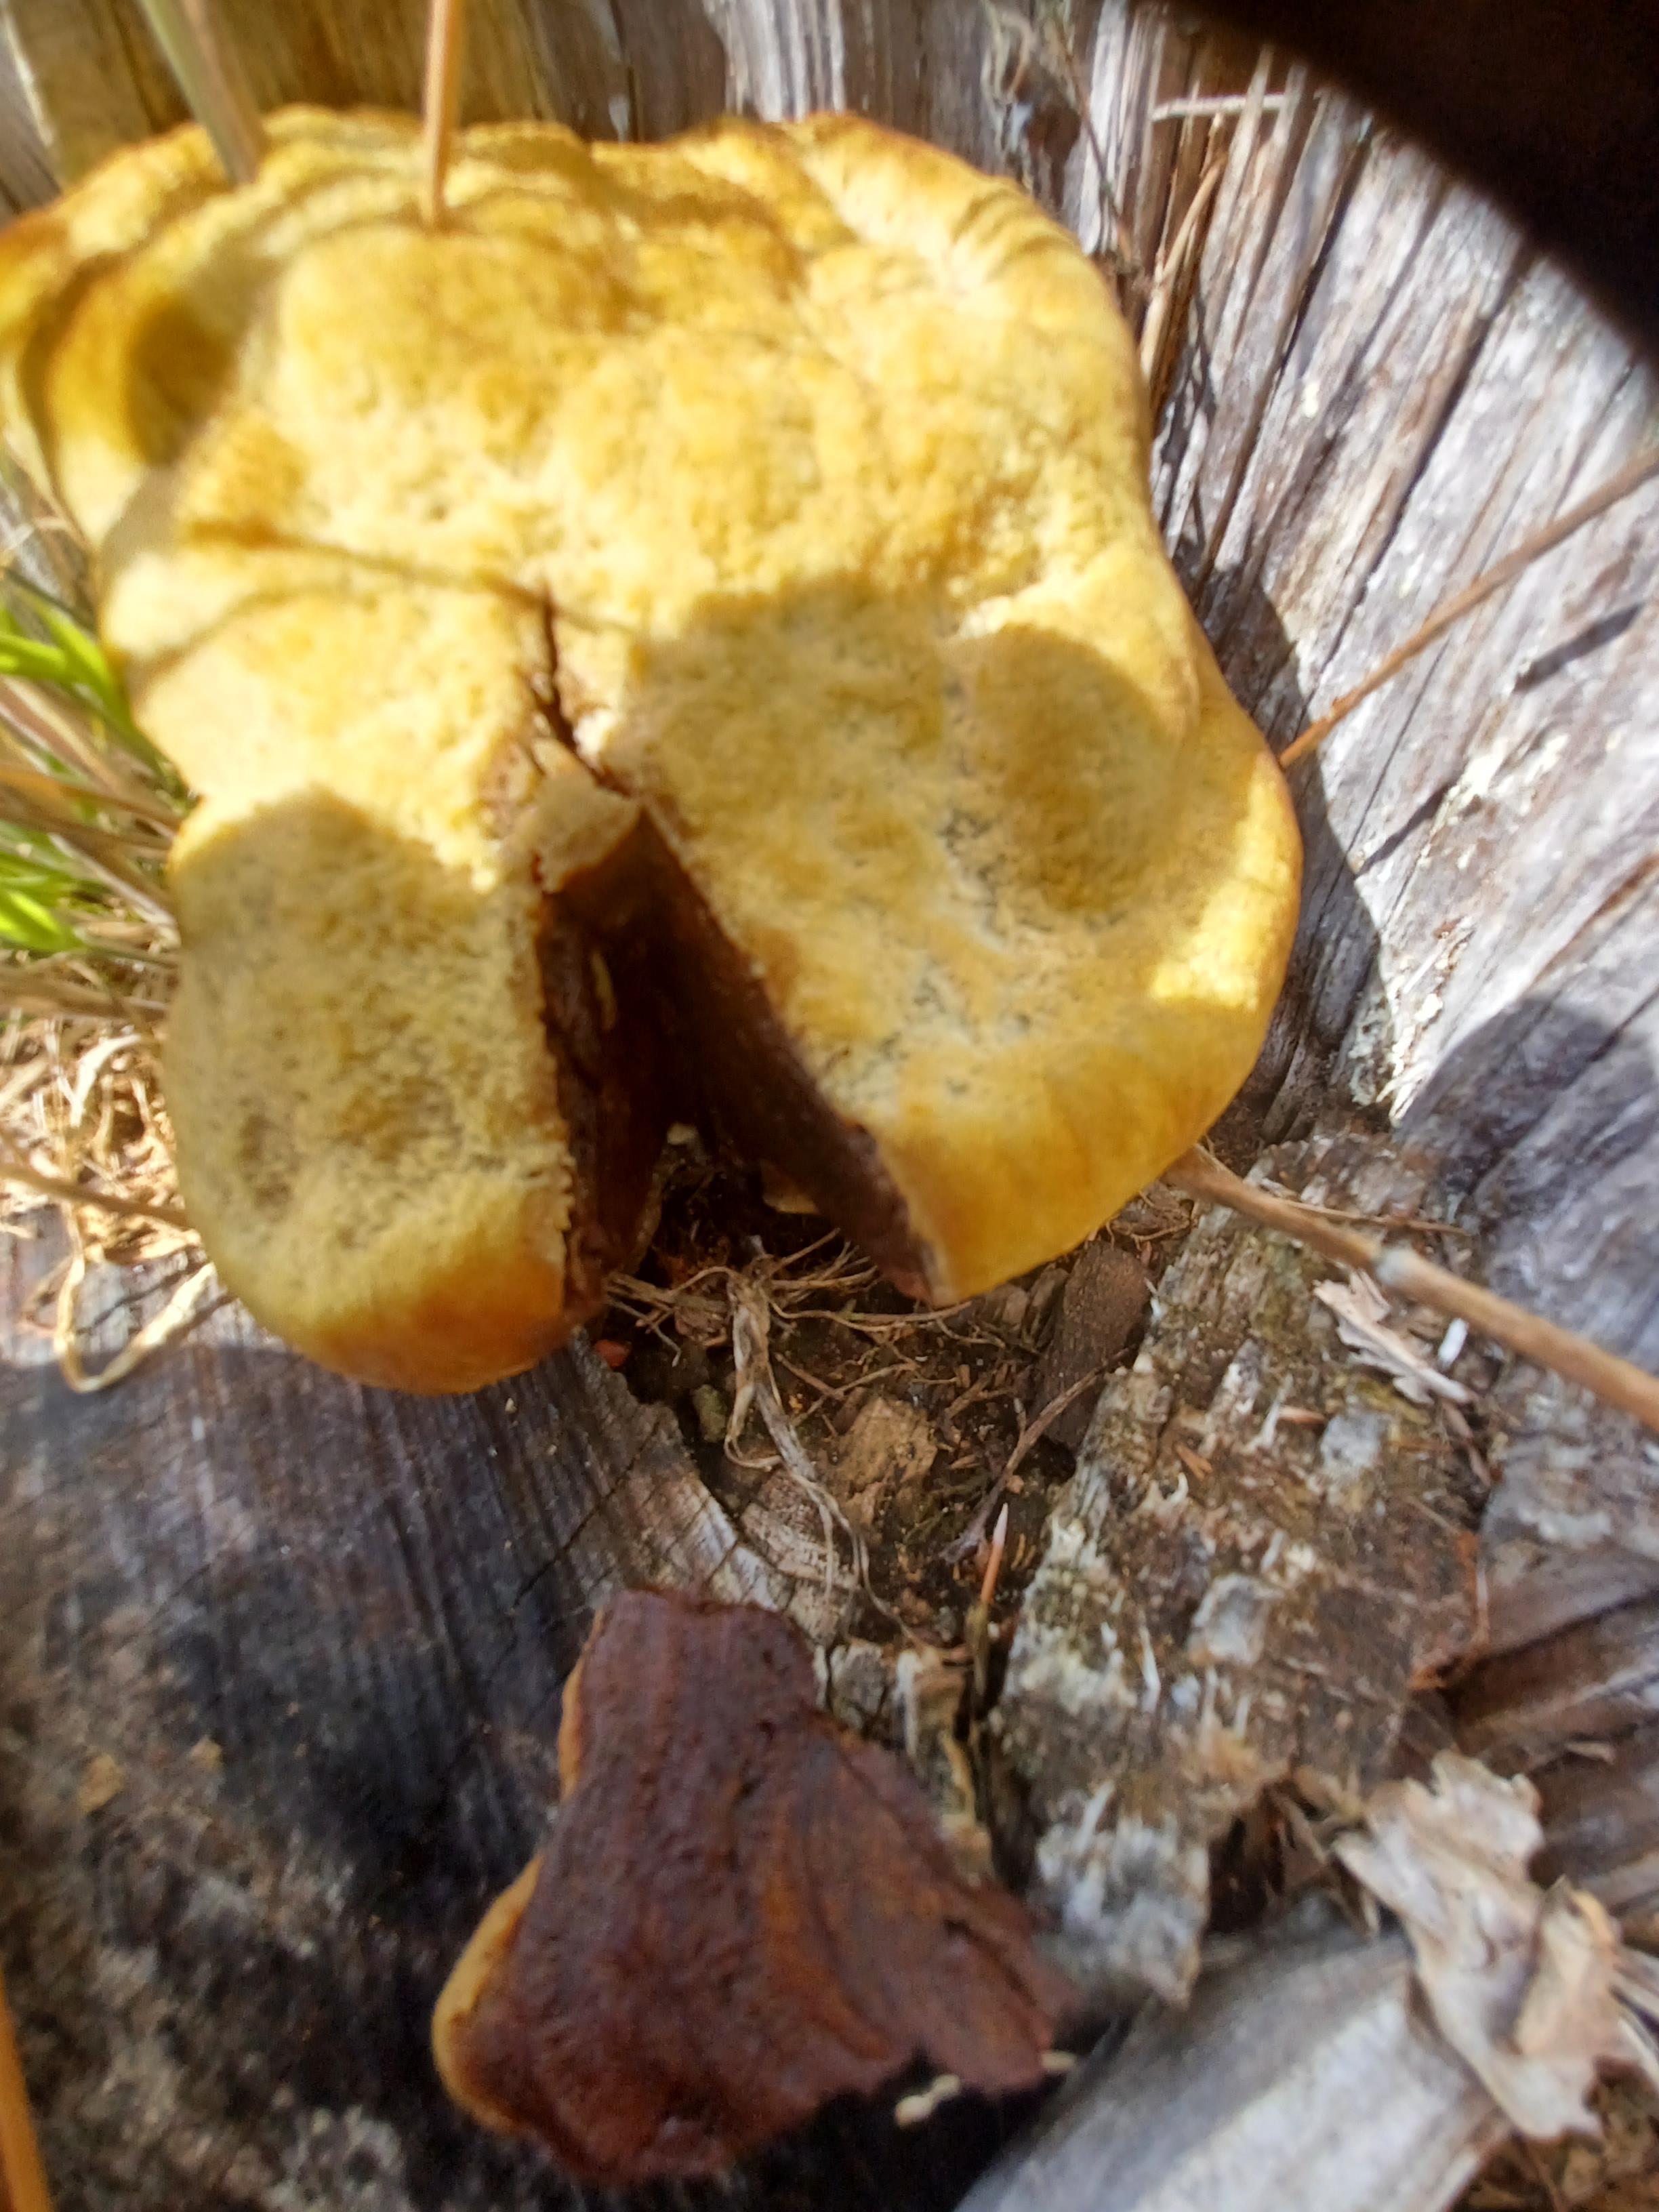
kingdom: Fungi
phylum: Basidiomycota
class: Agaricomycetes
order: Polyporales
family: Laetiporaceae
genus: Phaeolus
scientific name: Phaeolus schweinitzii
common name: brunporesvamp
